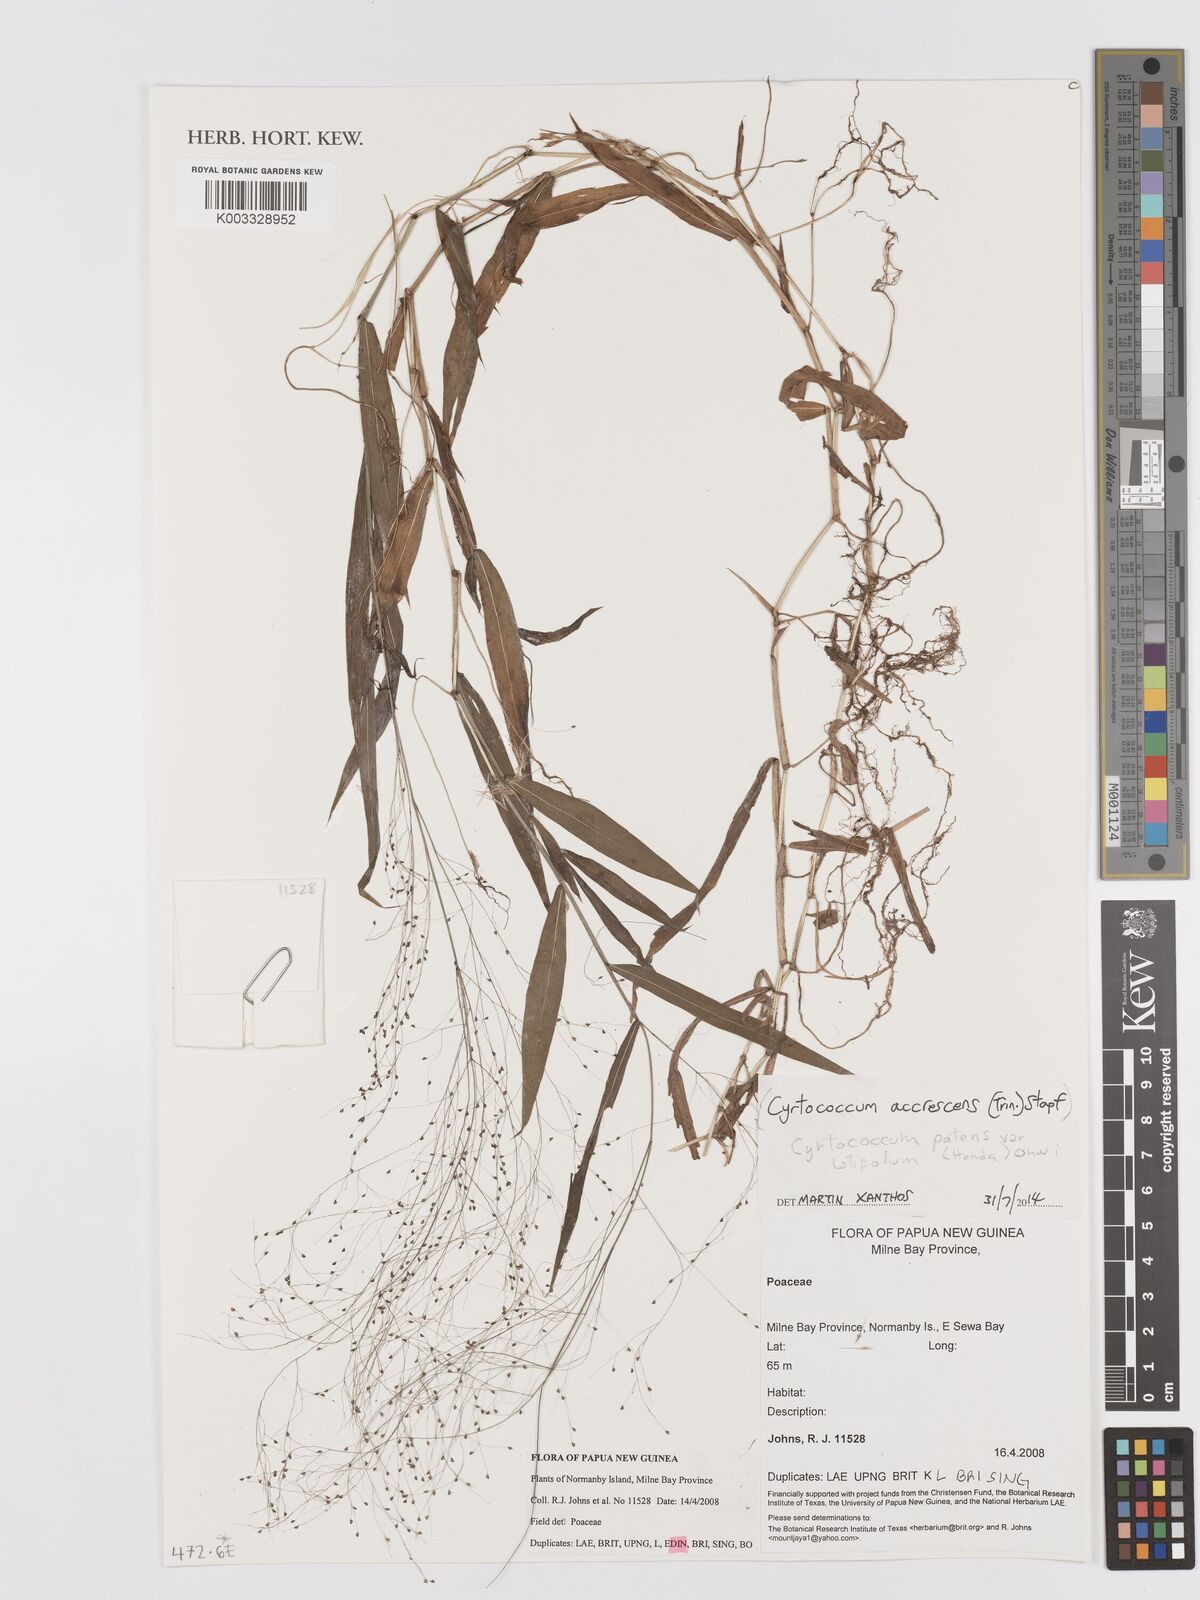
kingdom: Plantae
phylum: Tracheophyta
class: Liliopsida
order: Poales
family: Poaceae
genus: Cyrtococcum
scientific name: Cyrtococcum accrescens
